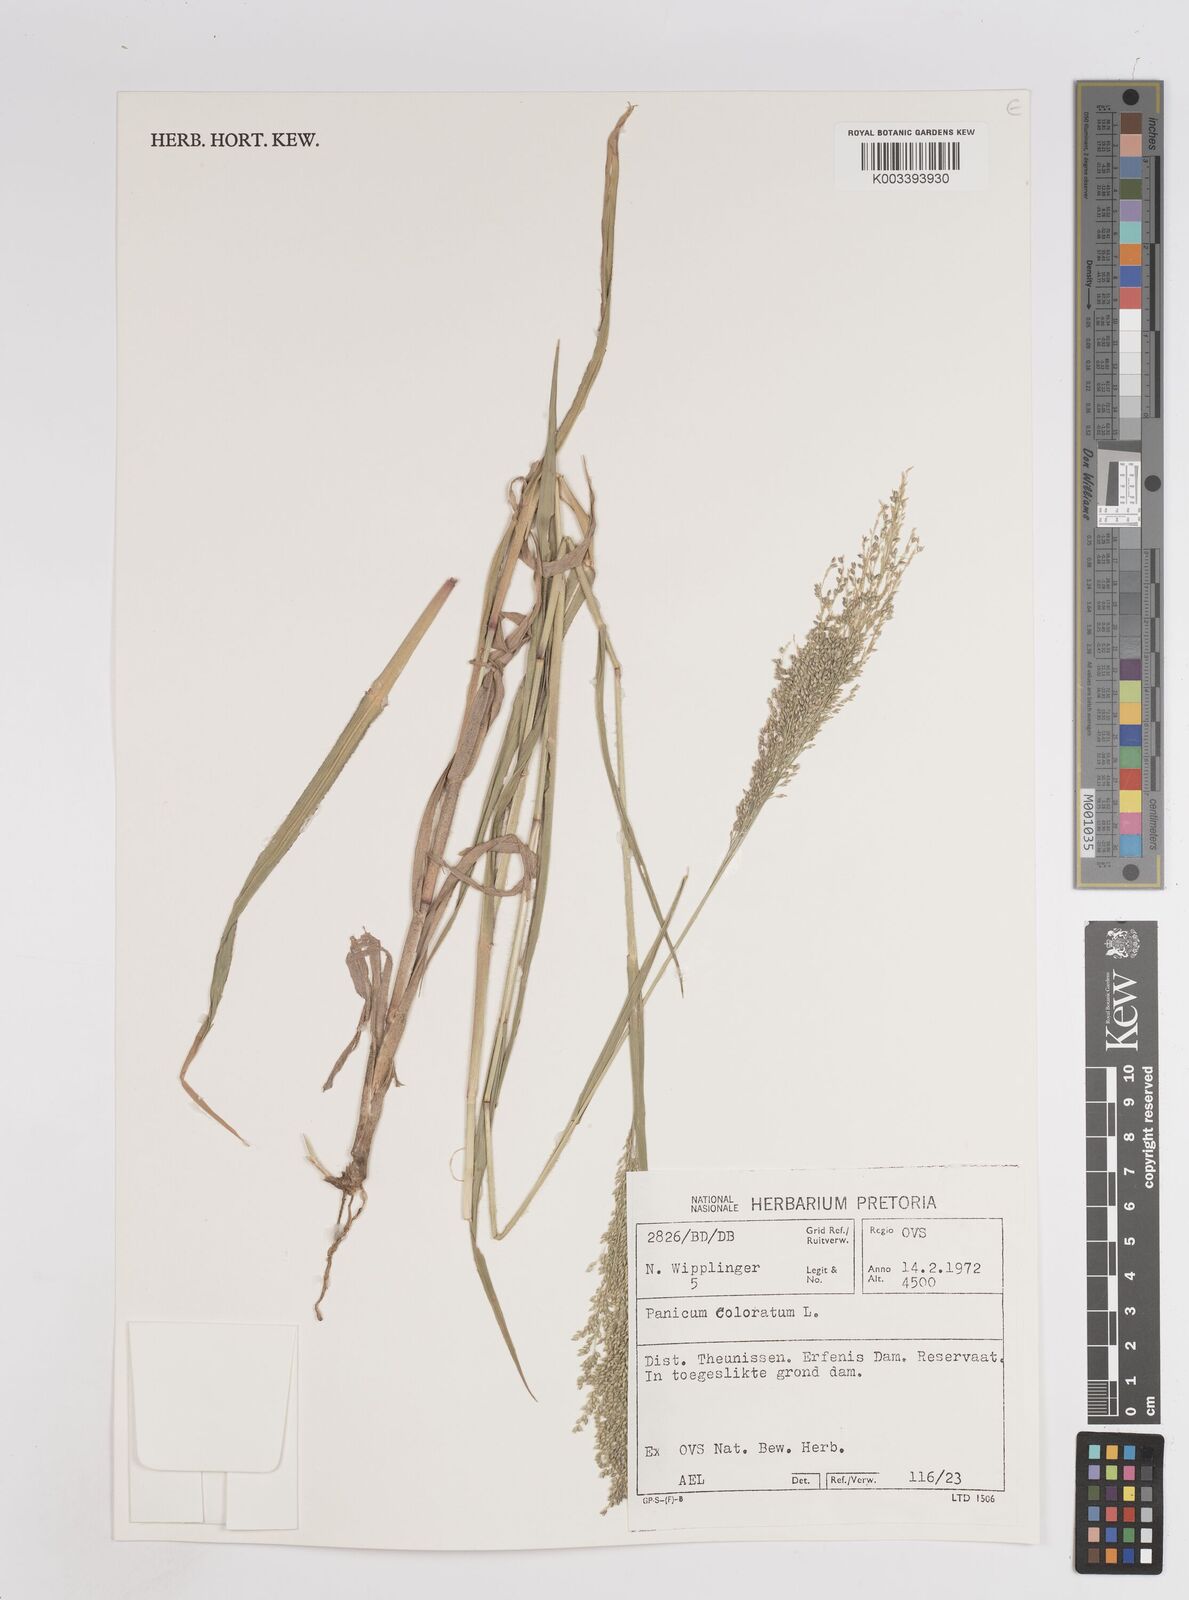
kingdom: Plantae
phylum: Tracheophyta
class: Liliopsida
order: Poales
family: Poaceae
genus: Panicum
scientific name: Panicum coloratum
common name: Kleingrass
